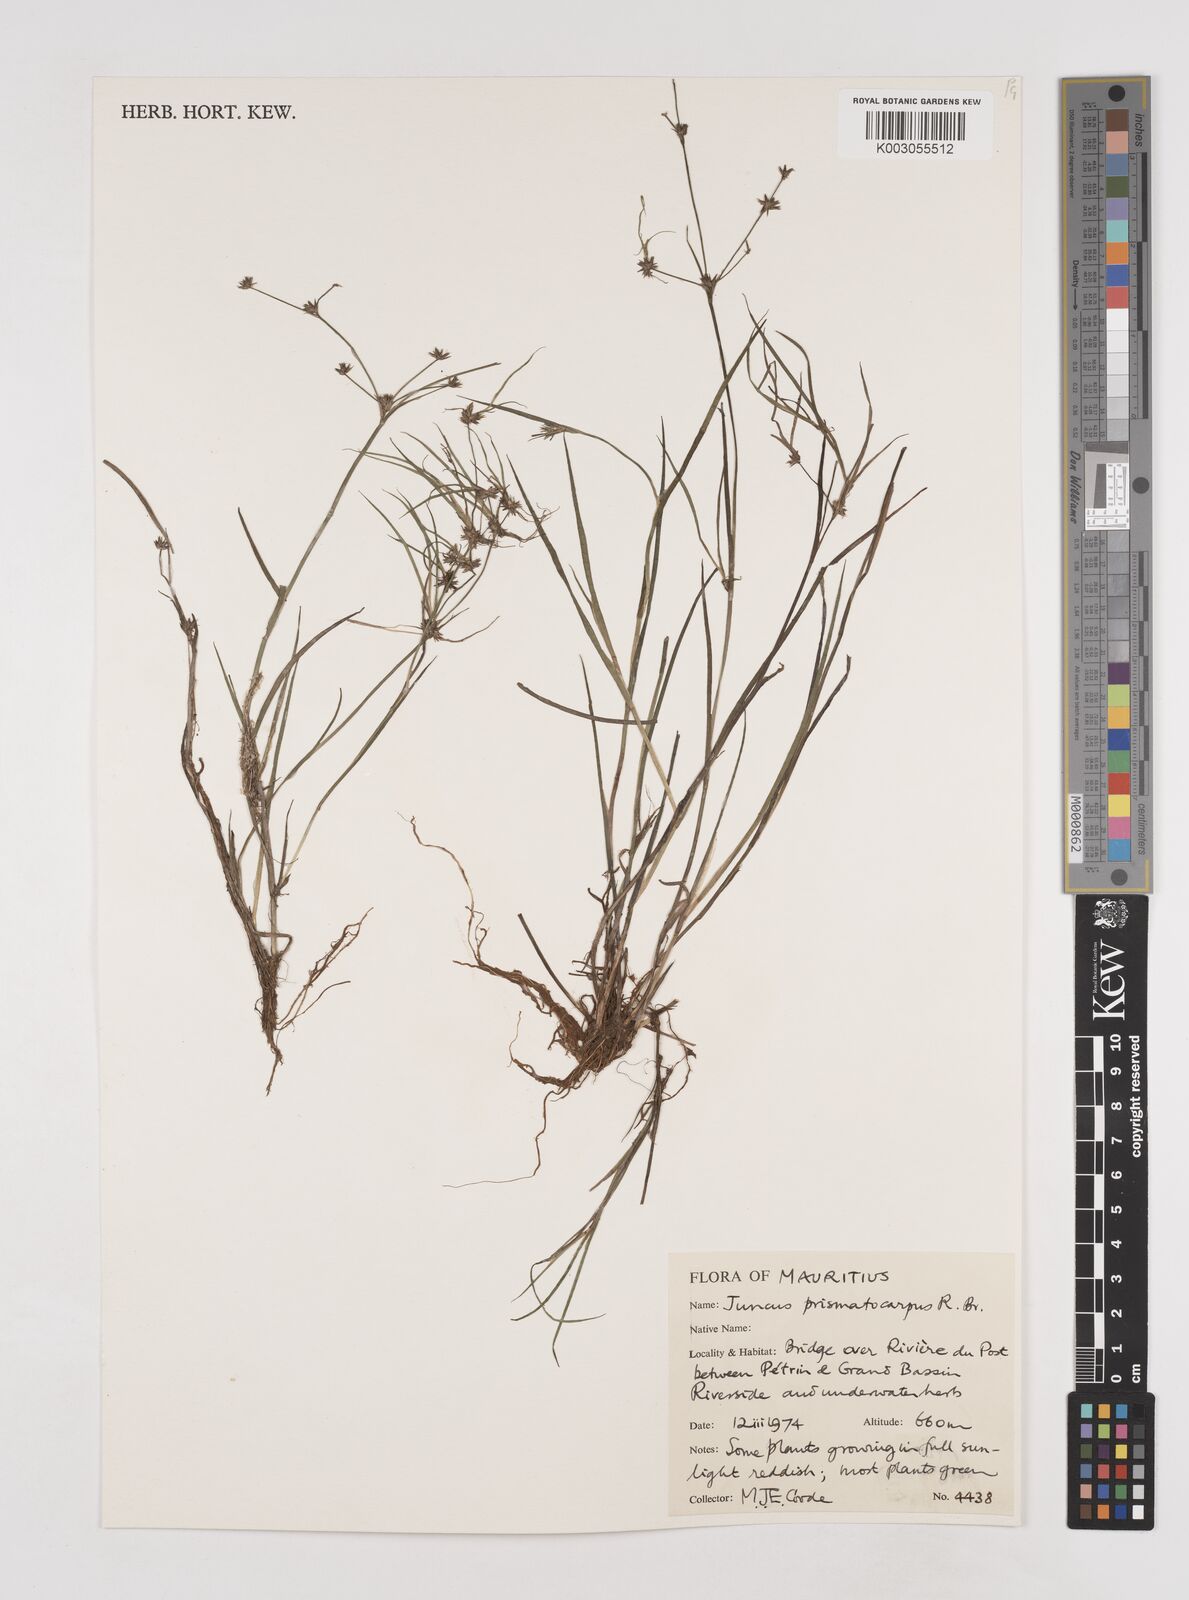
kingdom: Plantae
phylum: Tracheophyta
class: Liliopsida
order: Poales
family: Juncaceae
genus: Juncus
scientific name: Juncus prismatocarpus
